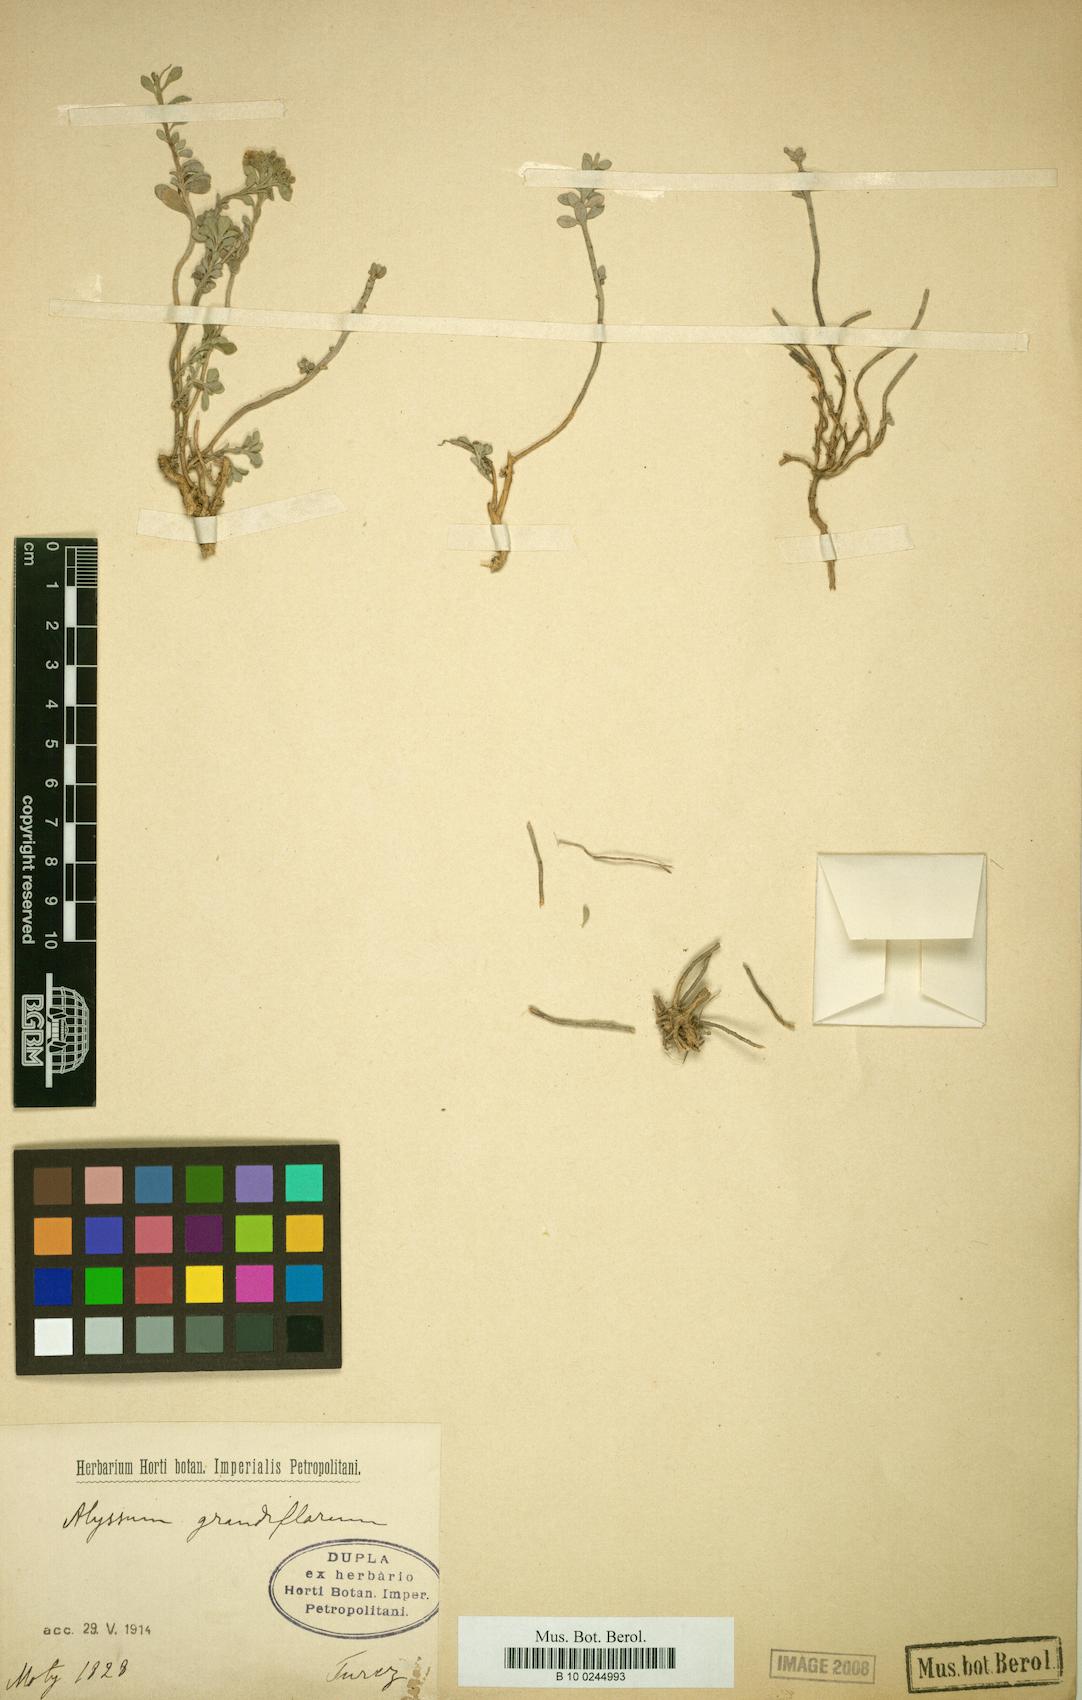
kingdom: Plantae
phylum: Tracheophyta
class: Magnoliopsida
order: Brassicales
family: Brassicaceae
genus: Paysonia
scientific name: Paysonia grandiflora
